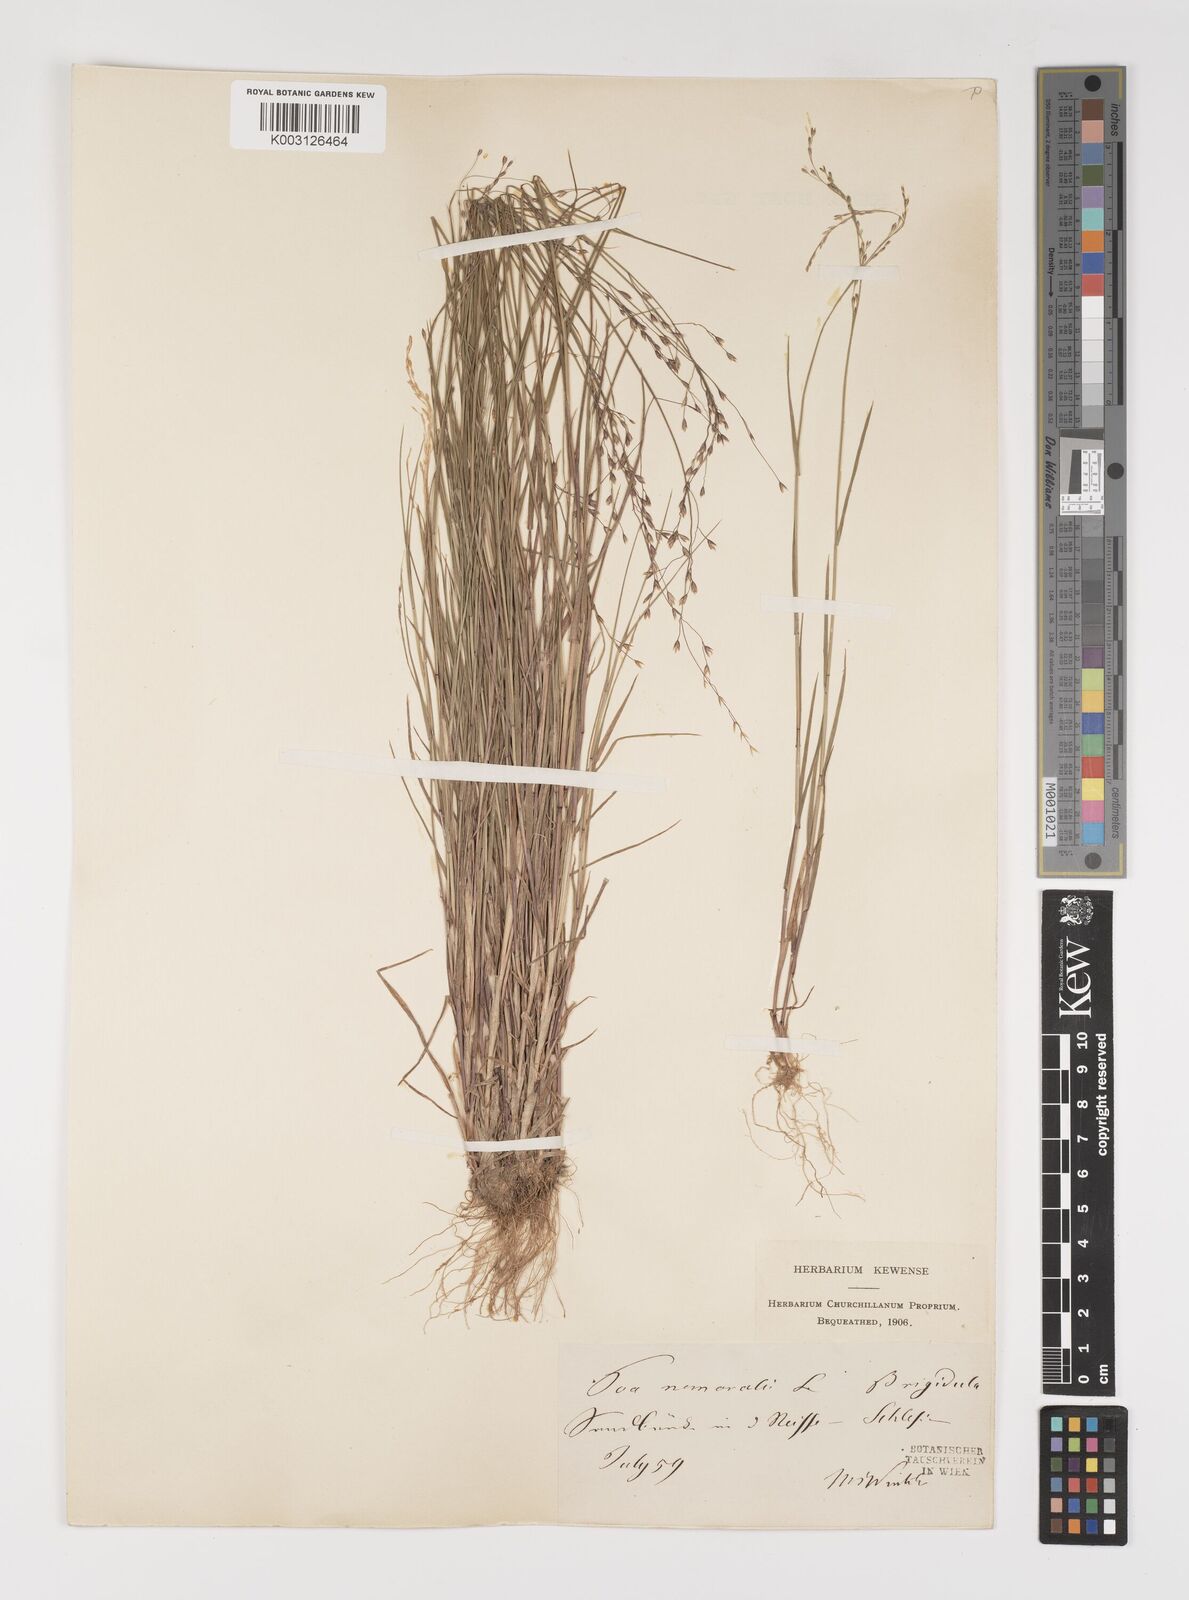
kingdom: Plantae
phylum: Tracheophyta
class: Liliopsida
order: Poales
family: Poaceae
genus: Poa
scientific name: Poa nemoralis
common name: Wood bluegrass
